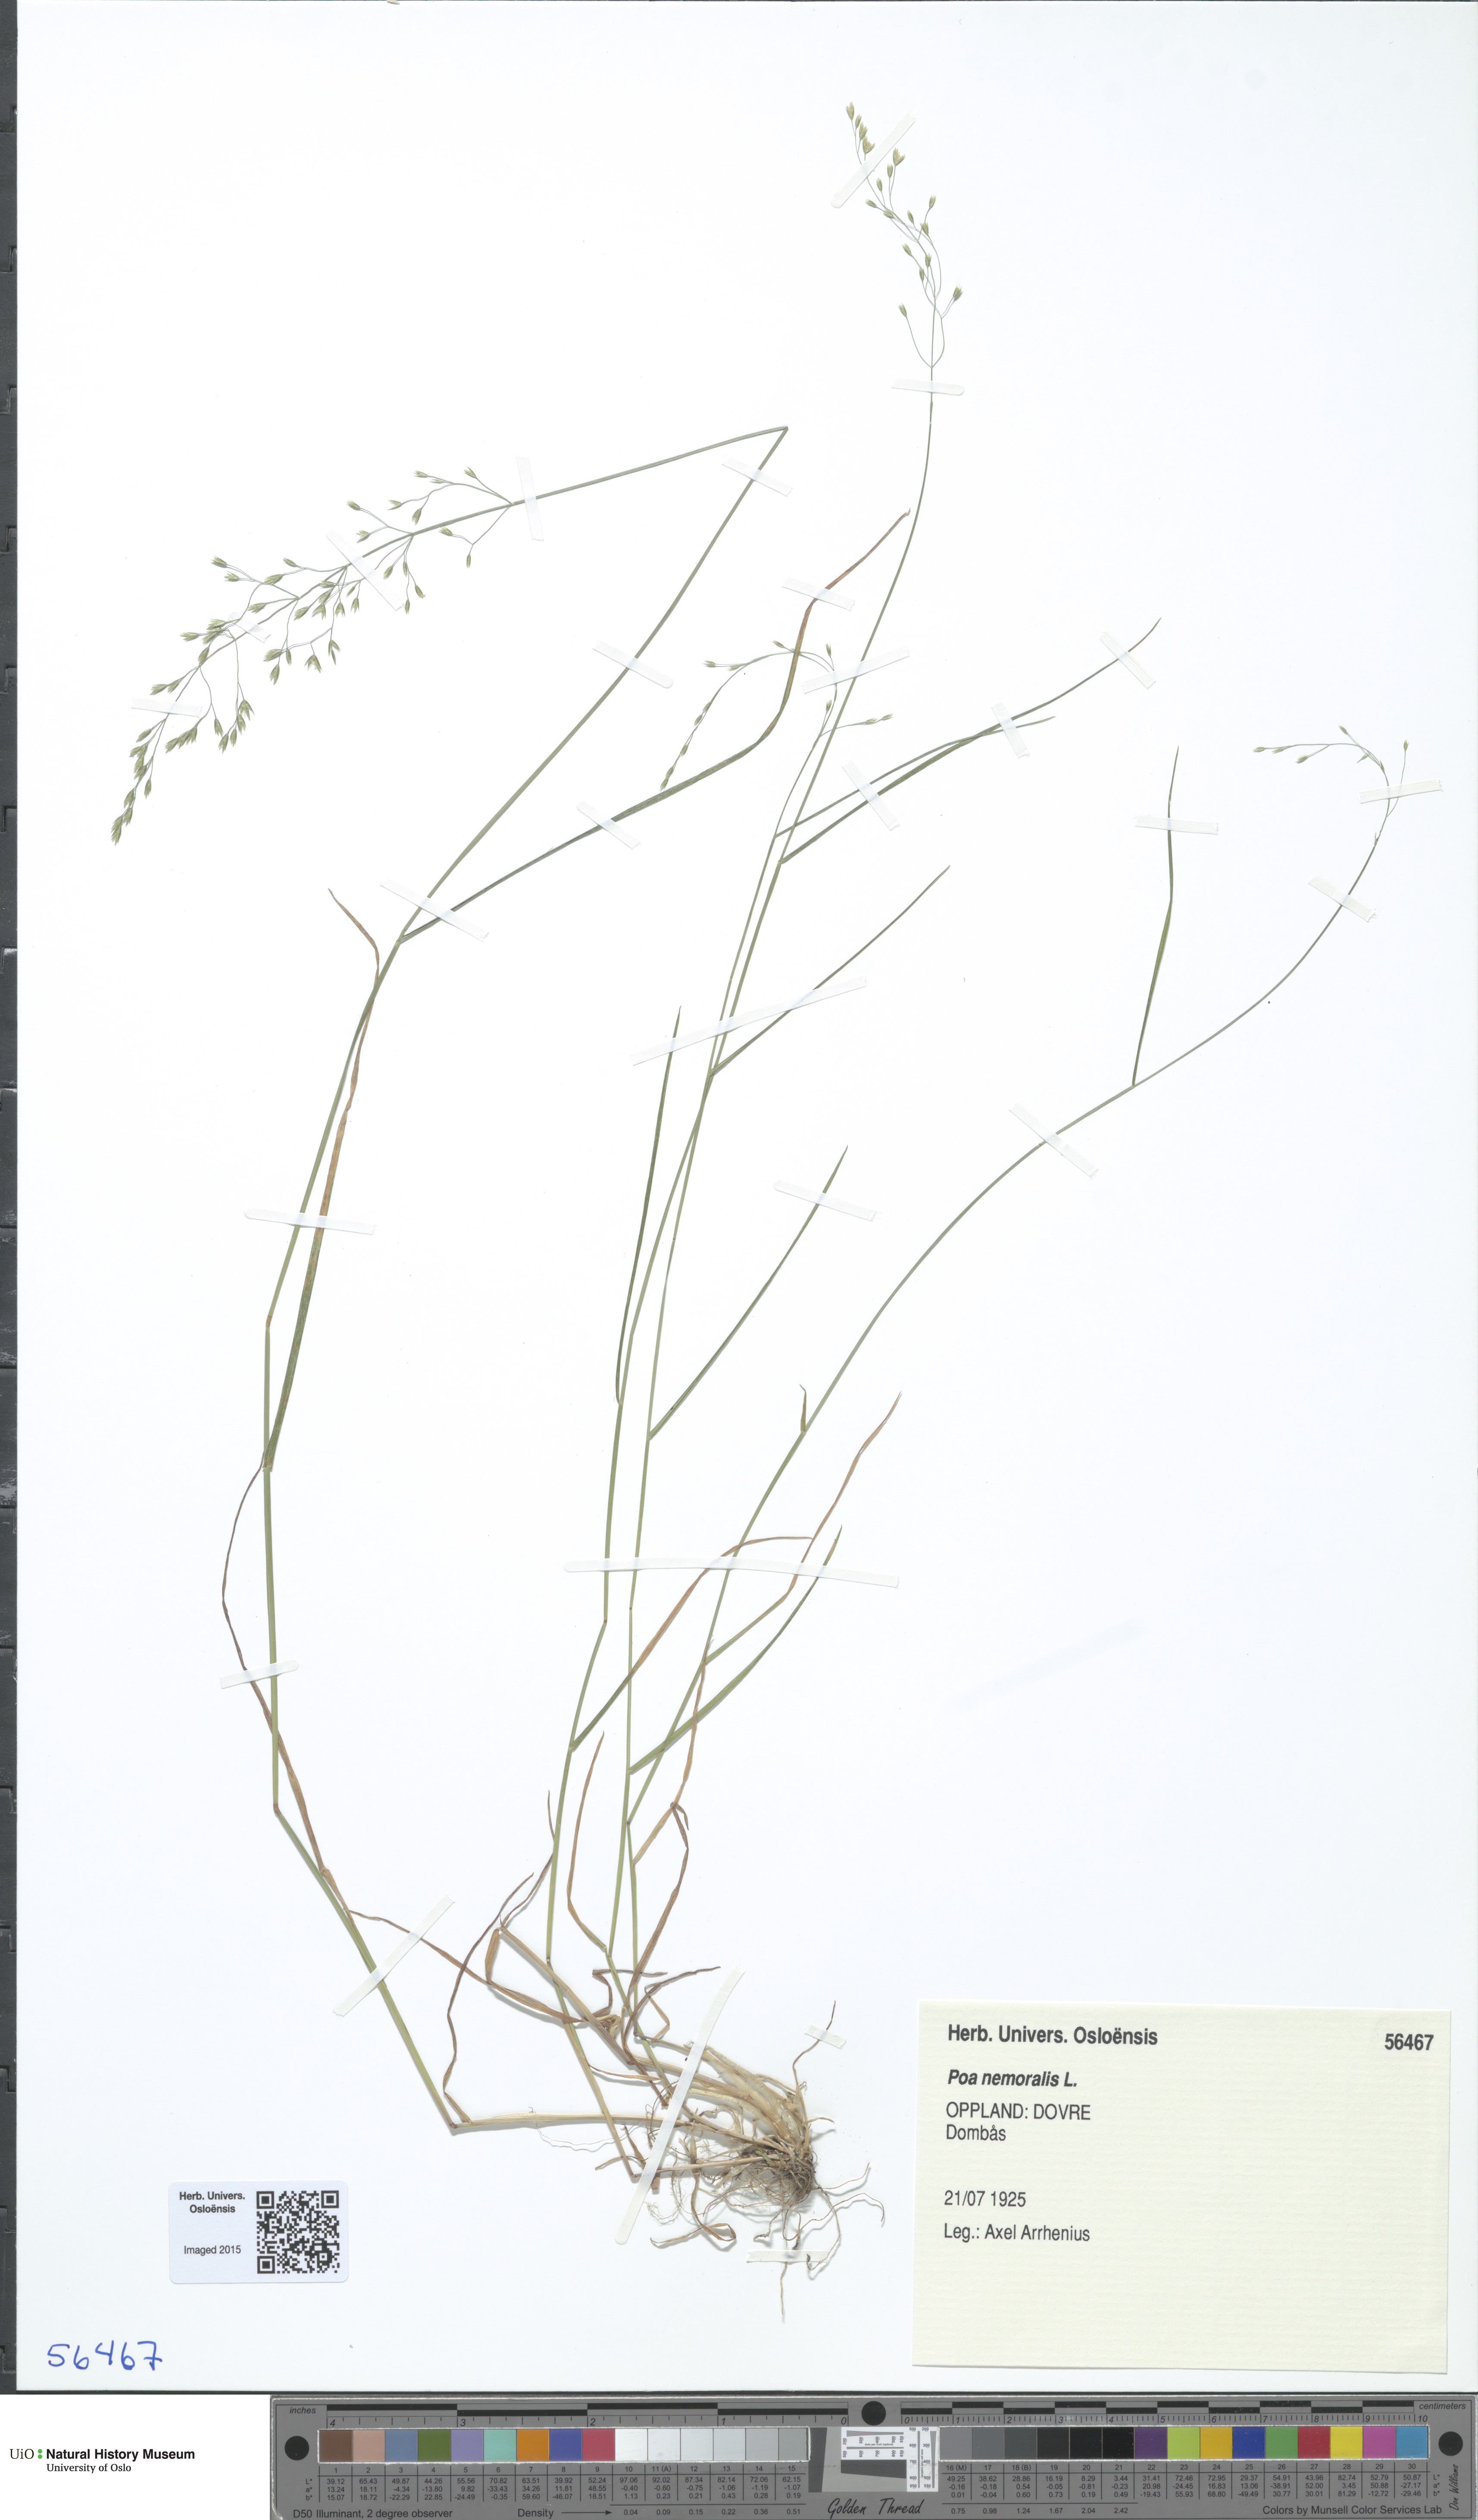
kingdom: Plantae
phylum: Tracheophyta
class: Liliopsida
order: Poales
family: Poaceae
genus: Poa
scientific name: Poa nemoralis
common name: Wood bluegrass
